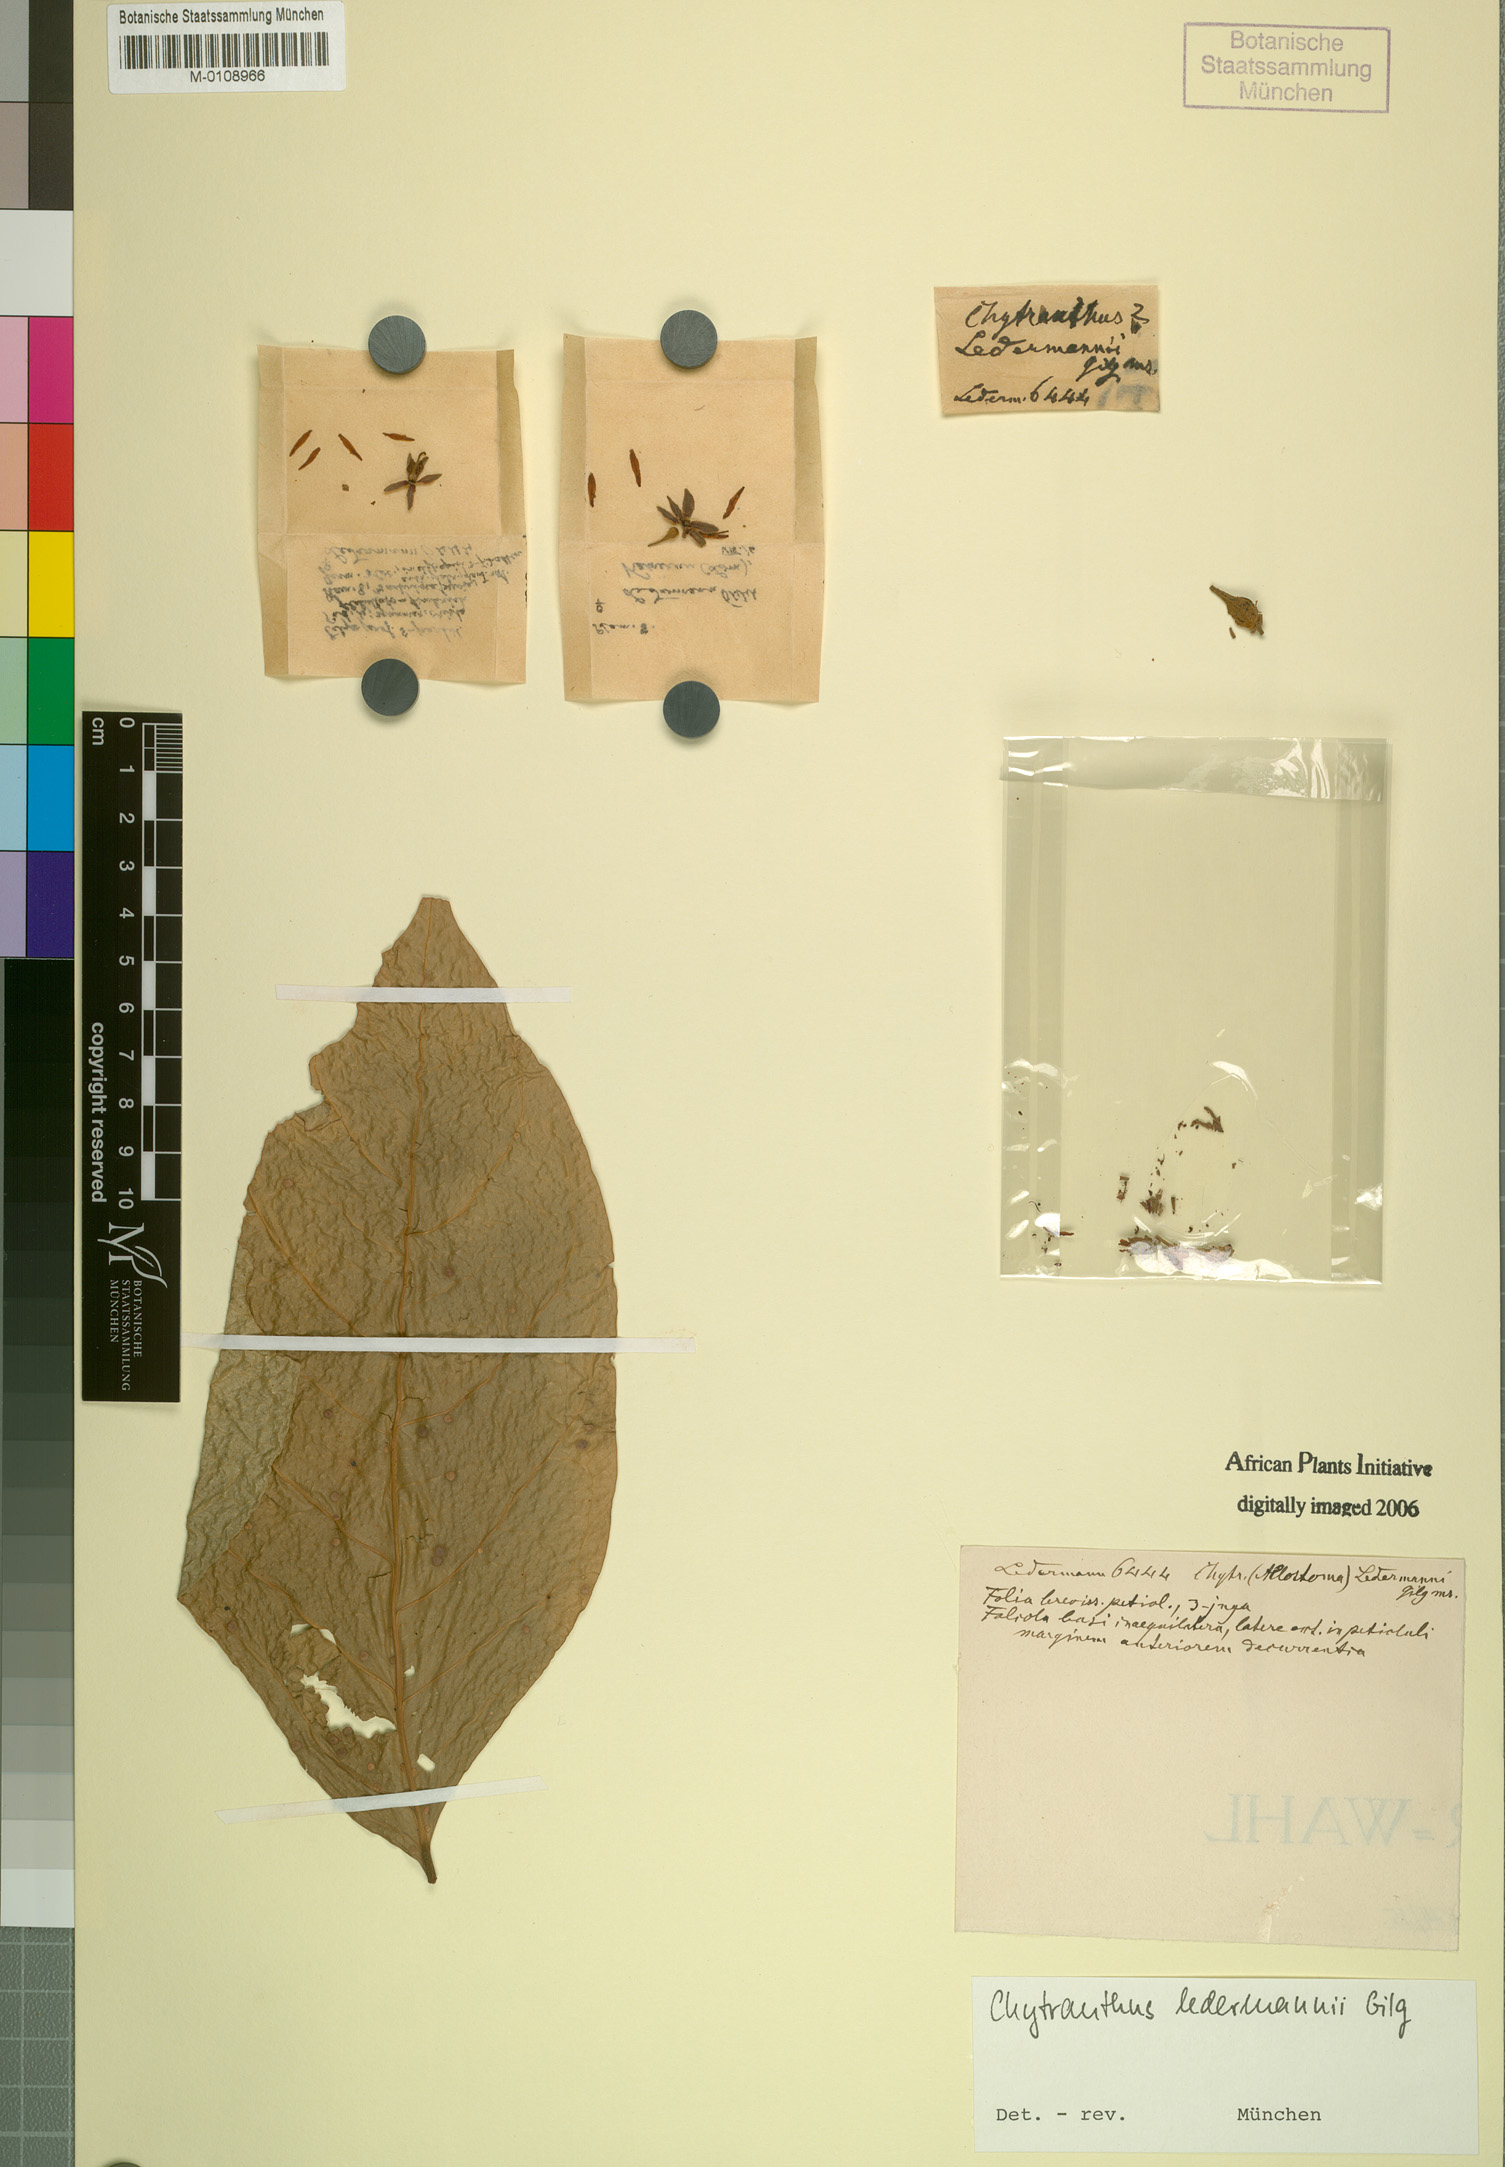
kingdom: Plantae
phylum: Tracheophyta
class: Magnoliopsida
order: Sapindales
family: Sapindaceae
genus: Chytranthus
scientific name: Chytranthus ledermannii
